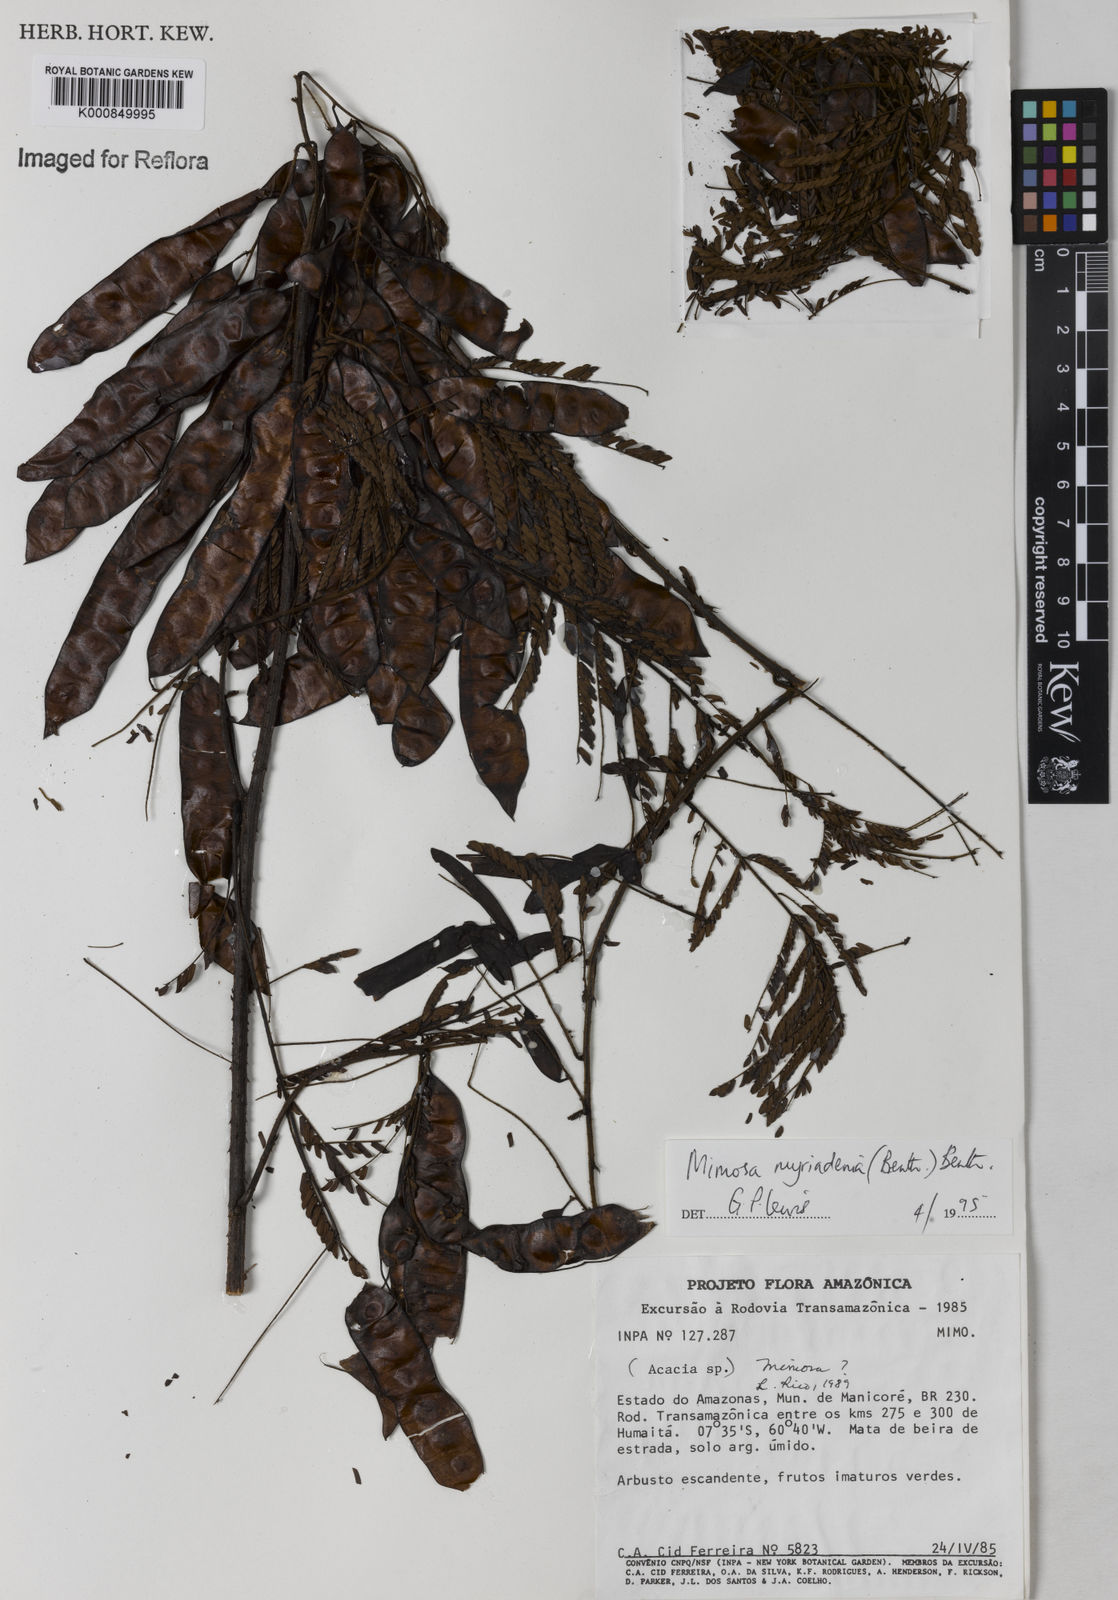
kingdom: Plantae
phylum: Tracheophyta
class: Magnoliopsida
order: Fabales
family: Fabaceae
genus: Mimosa
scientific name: Mimosa myriadenia
